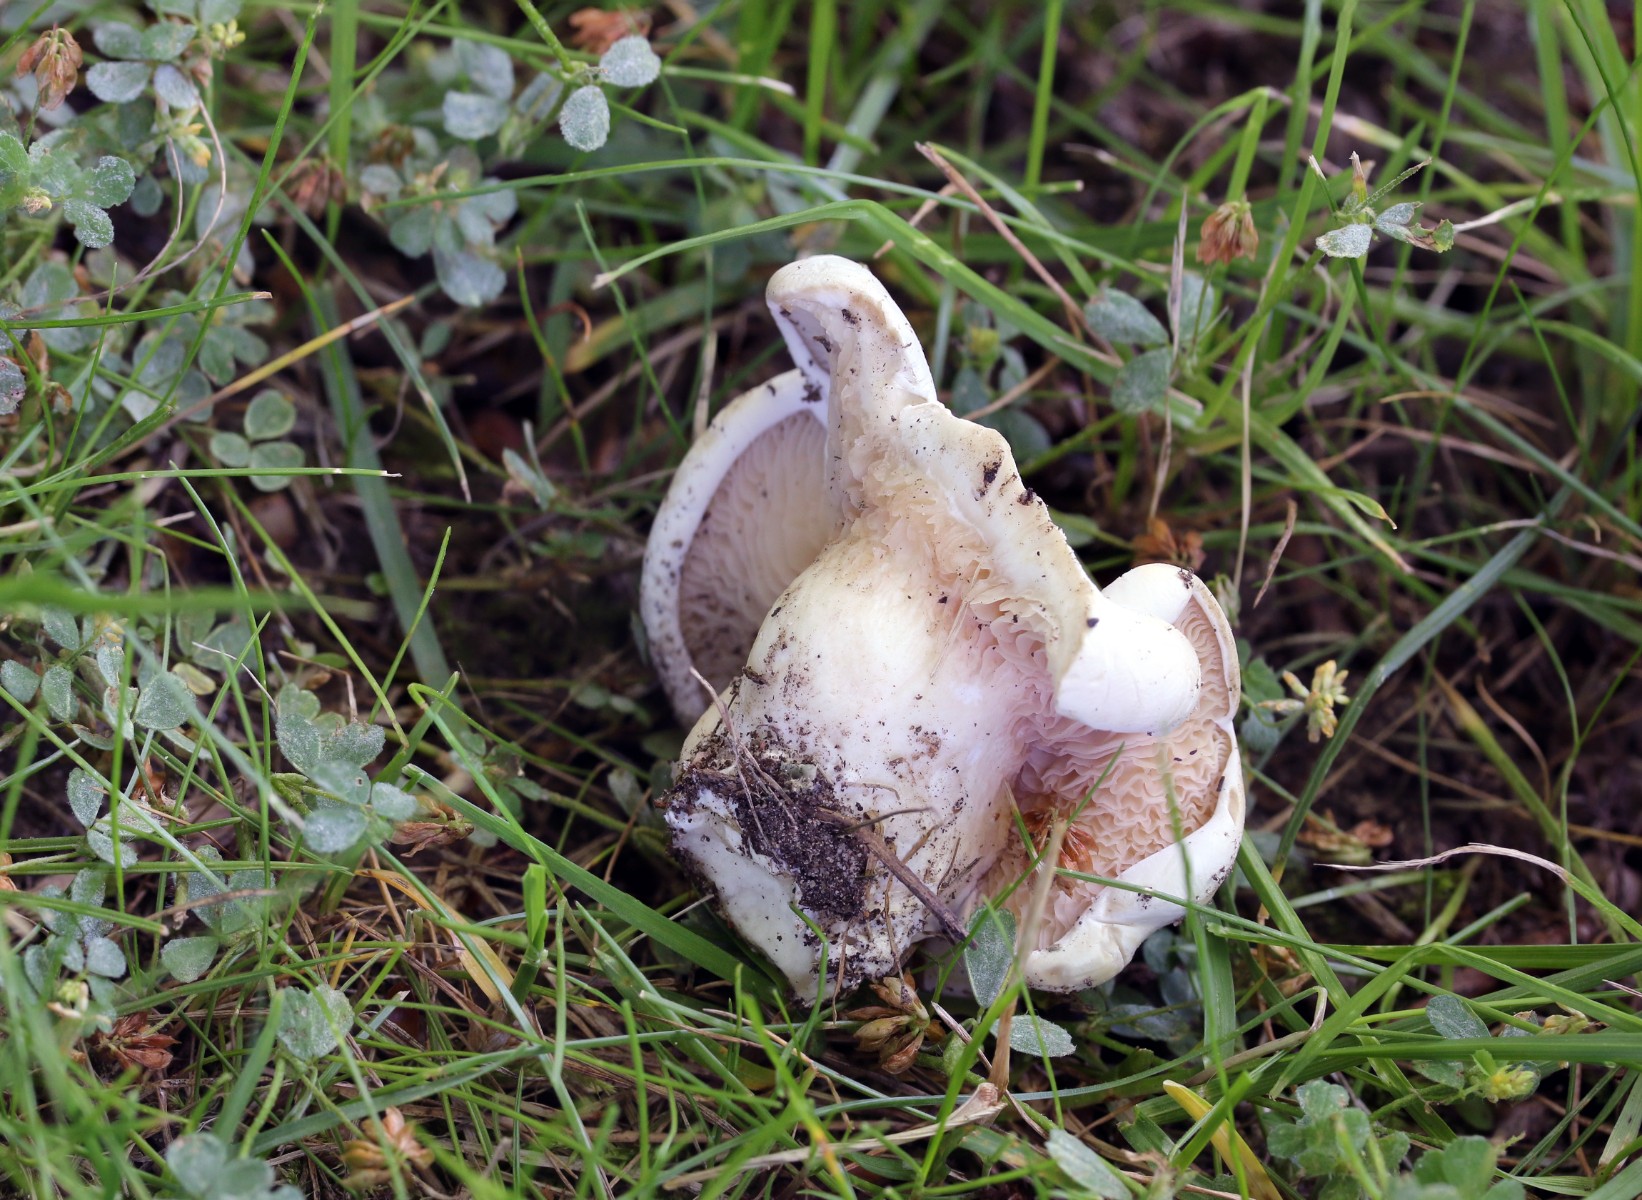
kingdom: Fungi
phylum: Basidiomycota
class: Agaricomycetes
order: Agaricales
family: Entolomataceae
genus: Clitopilus
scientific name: Clitopilus prunulus
